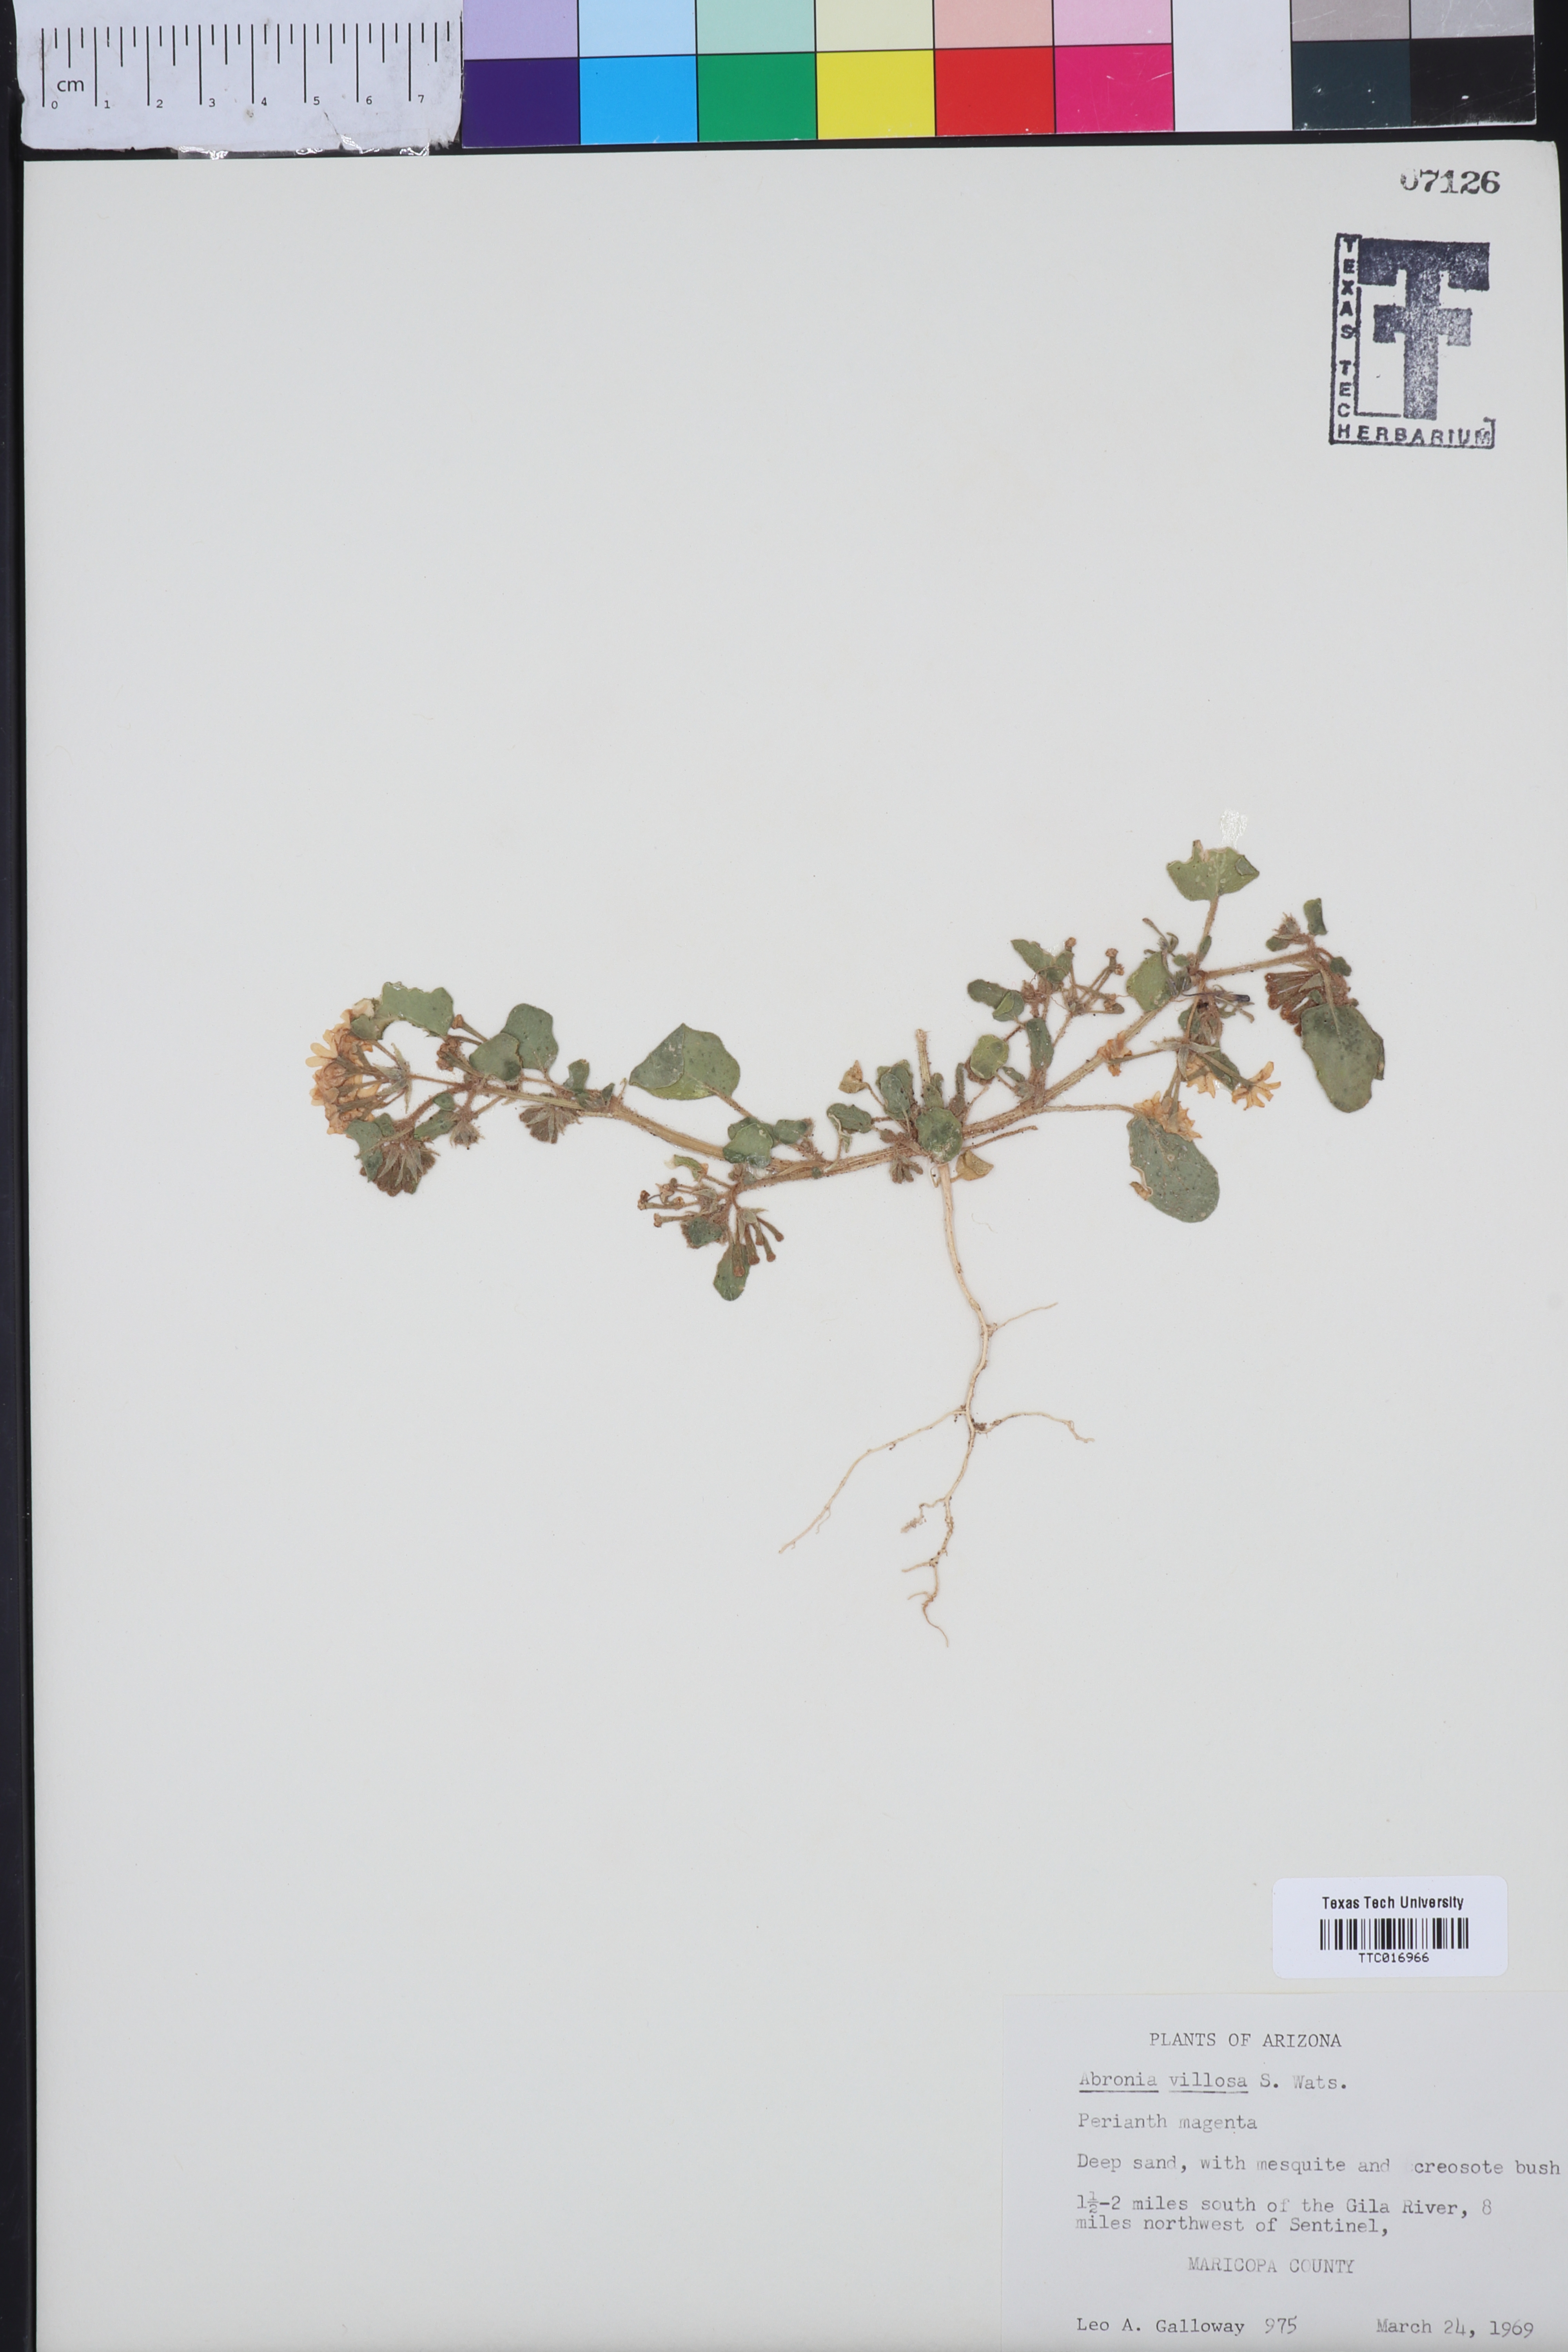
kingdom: Plantae
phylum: Tracheophyta
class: Magnoliopsida
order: Caryophyllales
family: Nyctaginaceae
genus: Abronia
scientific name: Abronia villosa
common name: Desert sand-verbena
